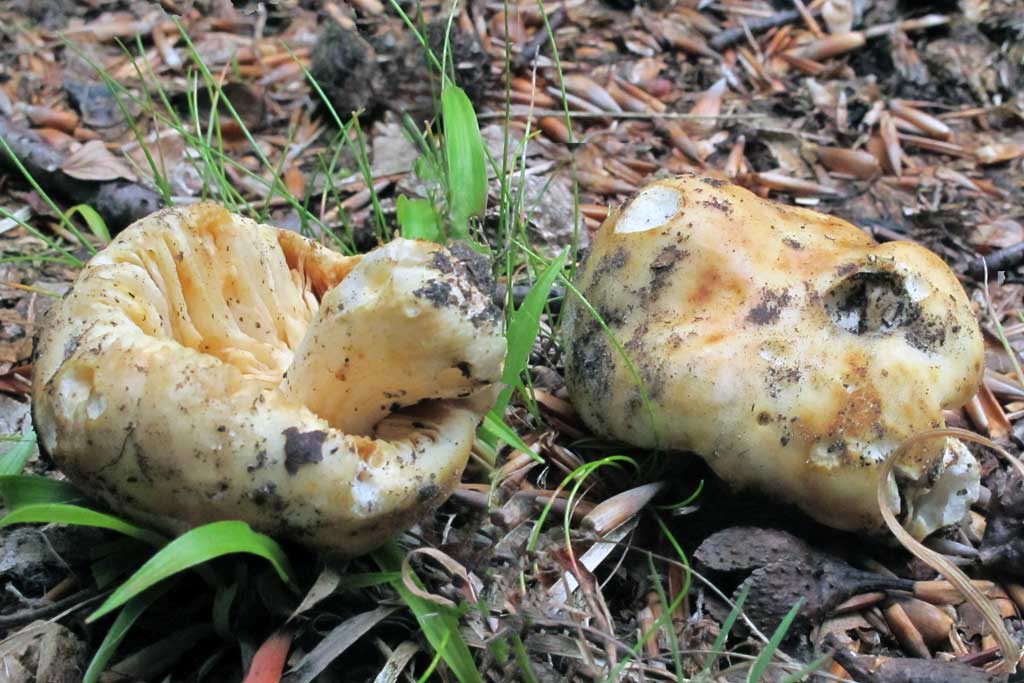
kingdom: Fungi
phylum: Basidiomycota
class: Agaricomycetes
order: Russulales
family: Russulaceae
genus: Russula
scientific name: Russula maculata
